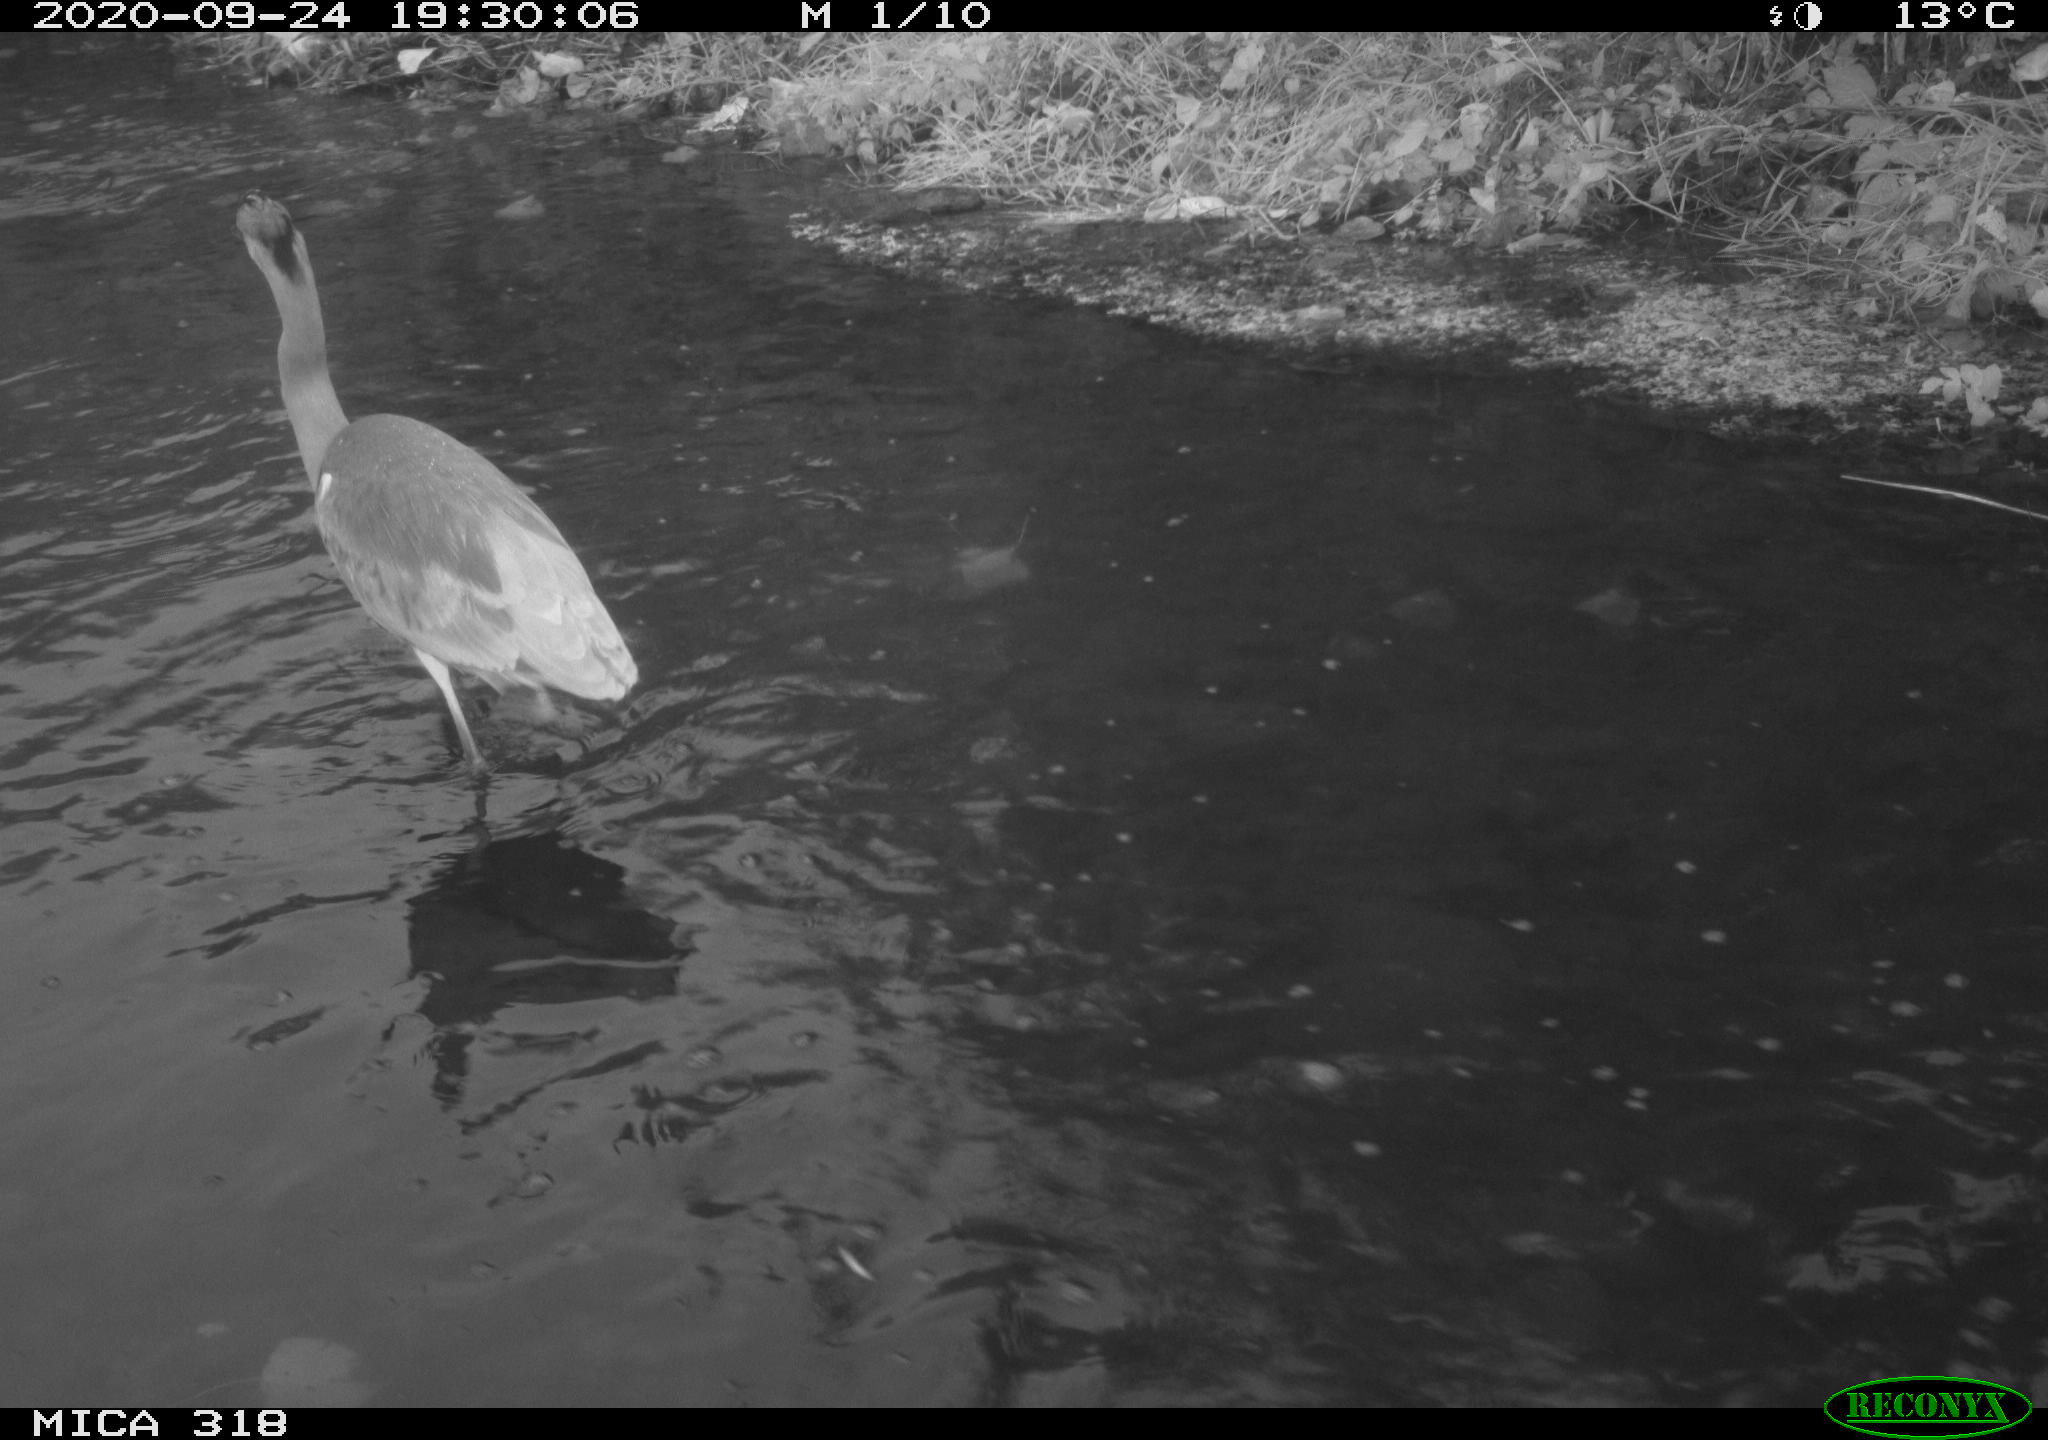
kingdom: Animalia
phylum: Chordata
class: Aves
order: Pelecaniformes
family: Ardeidae
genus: Ardea
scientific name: Ardea cinerea
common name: Grey heron
